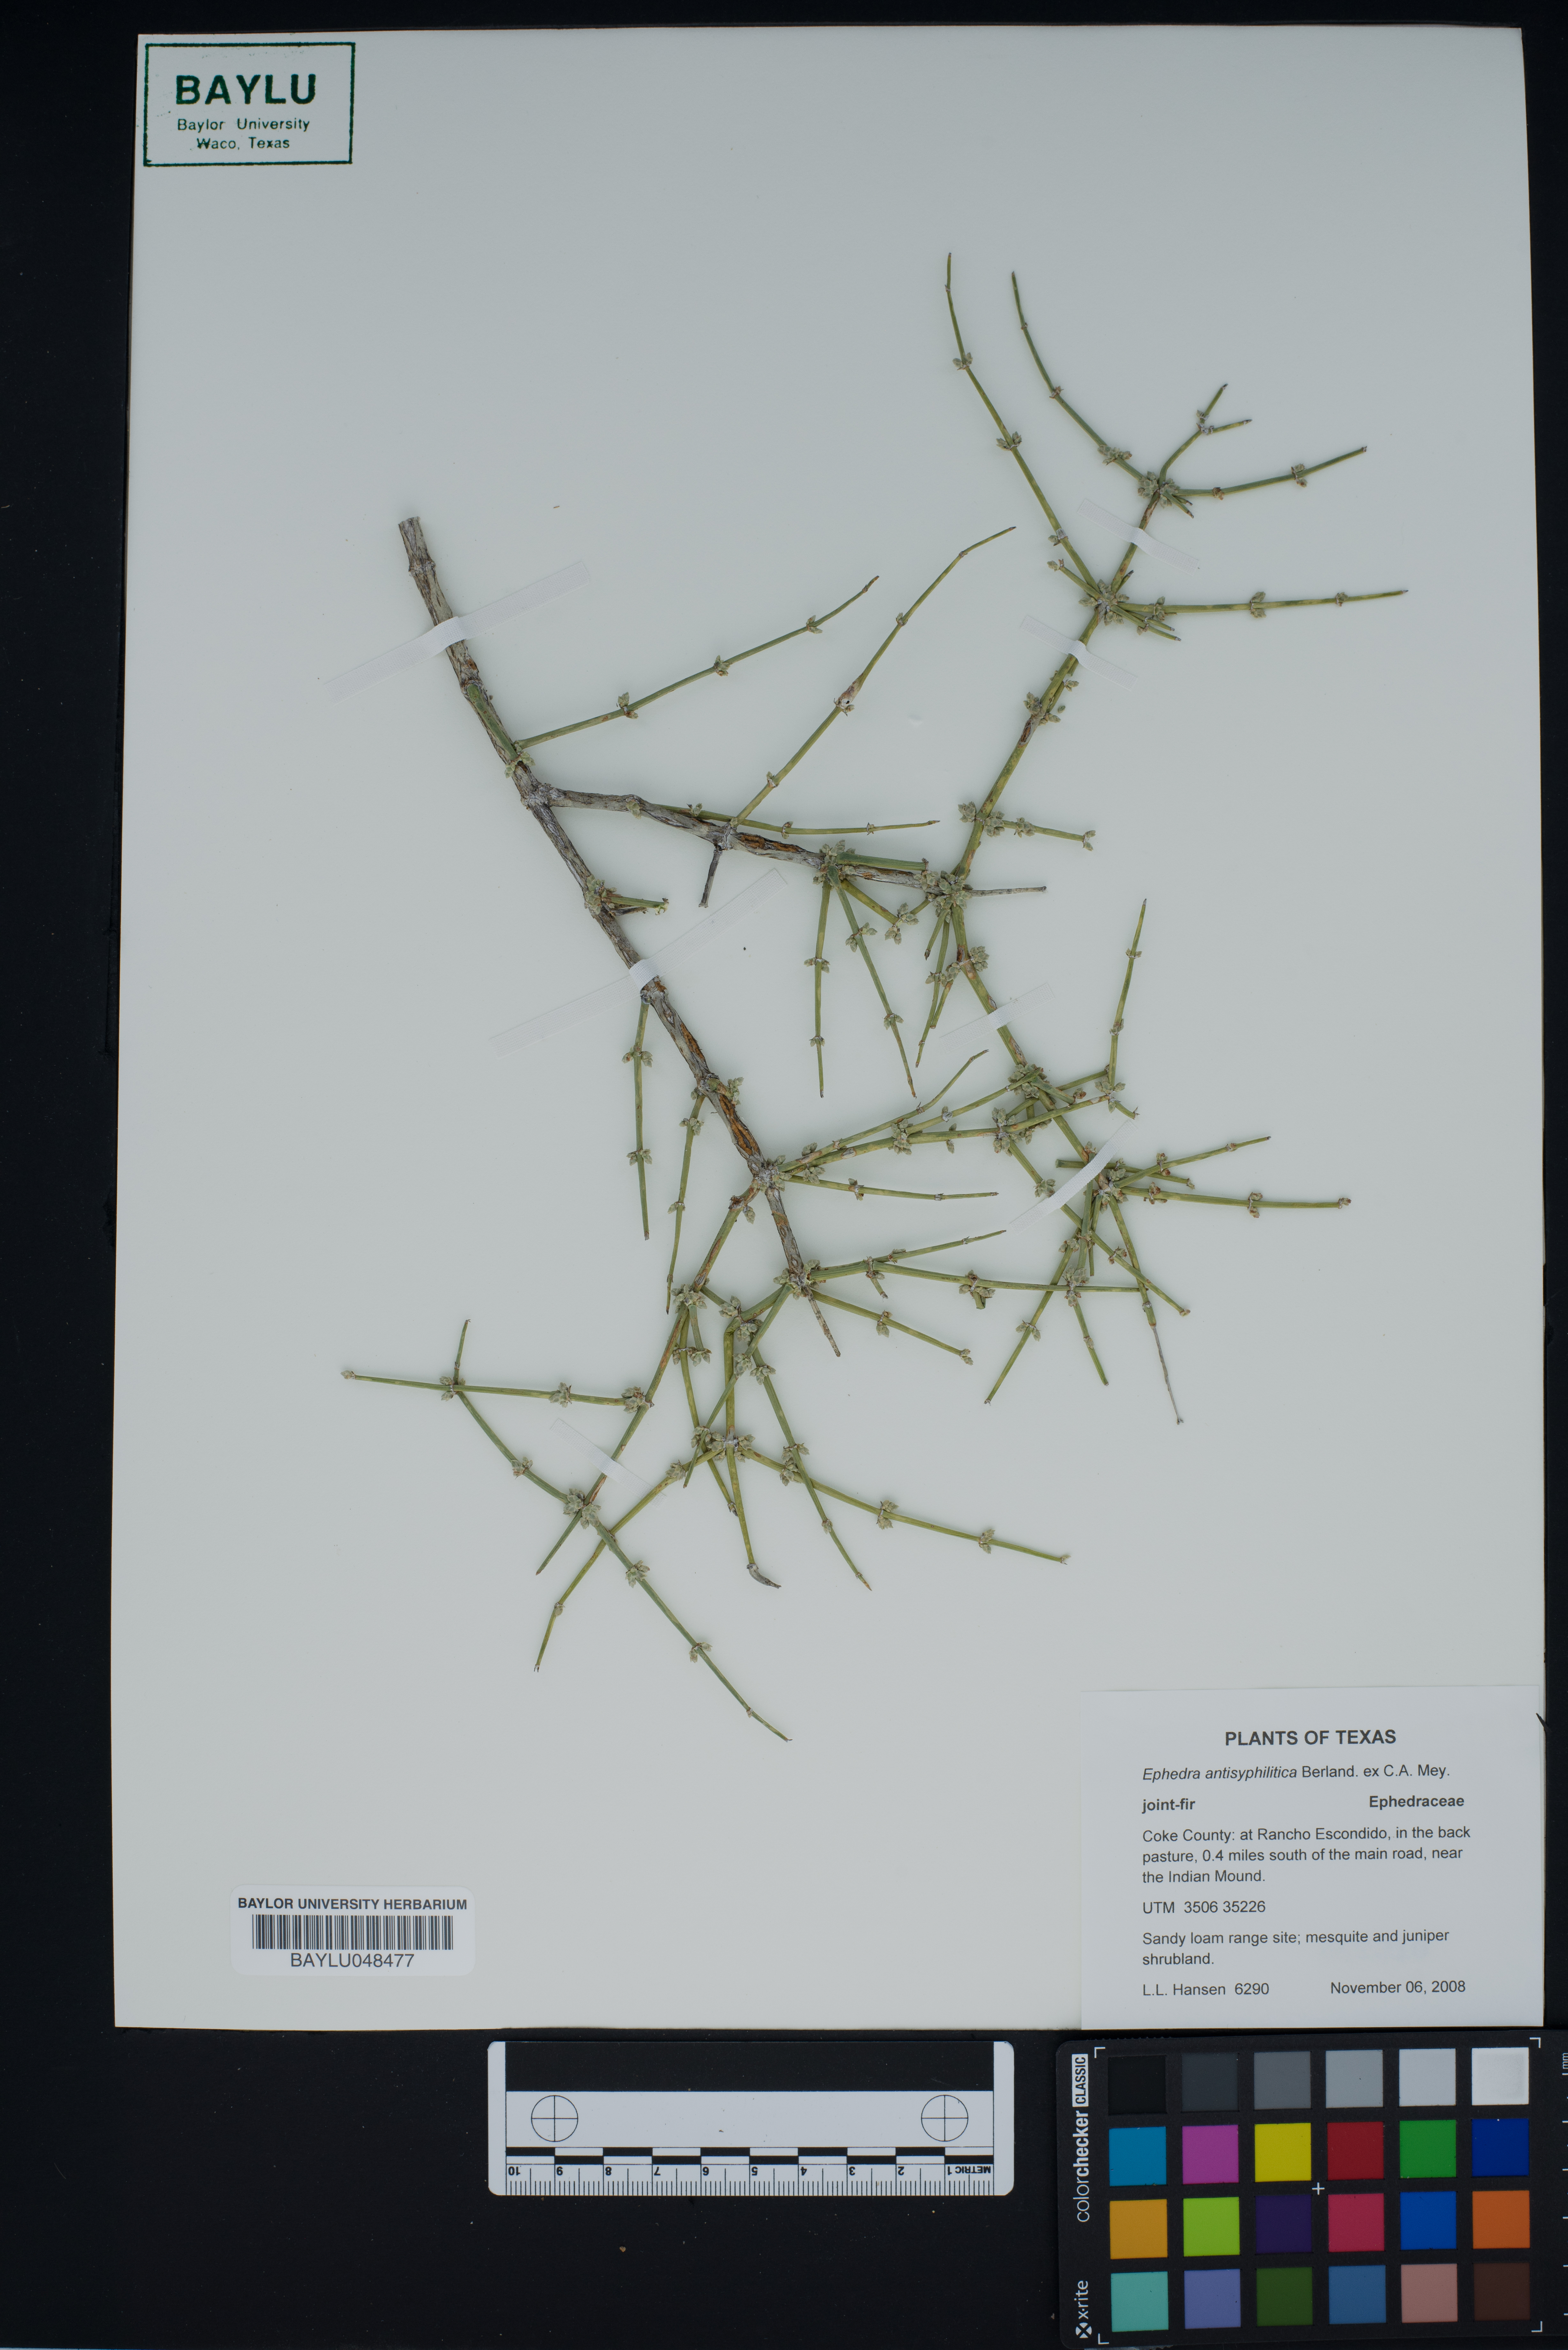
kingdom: Plantae
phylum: Tracheophyta
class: Gnetopsida
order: Ephedrales
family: Ephedraceae
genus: Ephedra
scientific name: Ephedra antisyphilitica
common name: Clipweed
